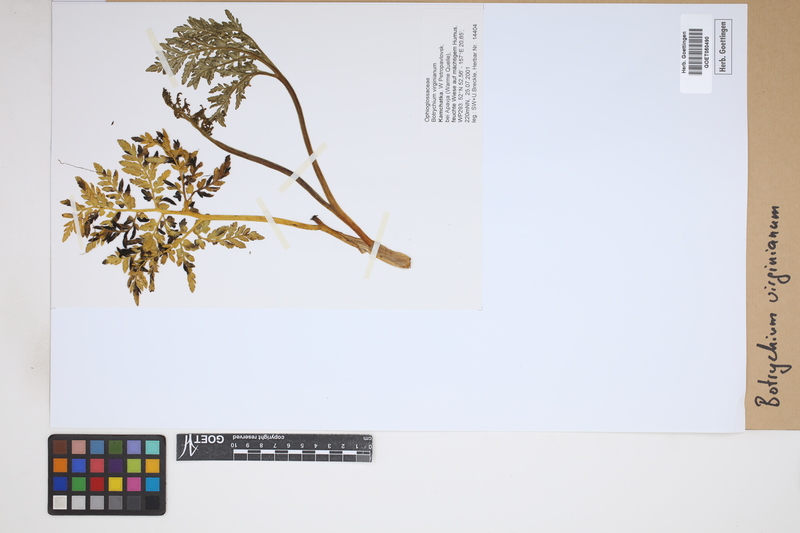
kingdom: Plantae
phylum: Tracheophyta
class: Polypodiopsida
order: Ophioglossales
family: Ophioglossaceae
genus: Botrychium
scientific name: Botrychium virginianum
